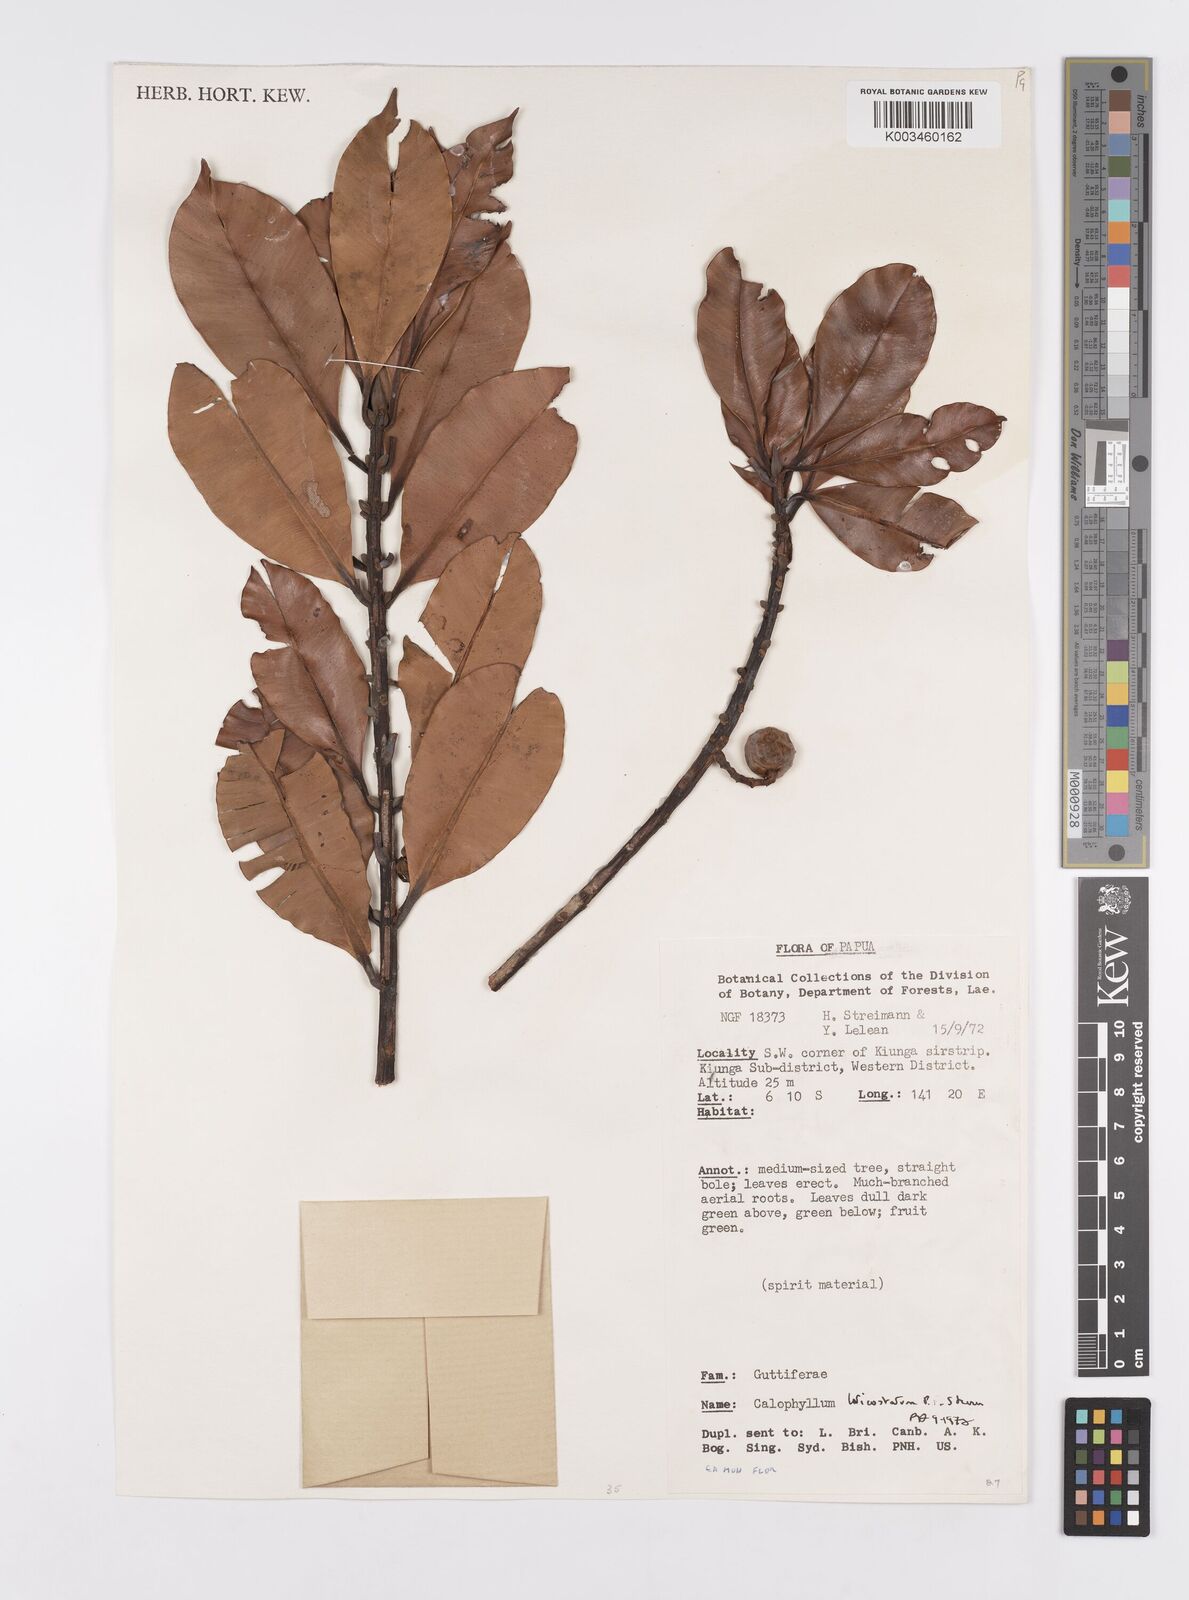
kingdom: Plantae
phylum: Tracheophyta
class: Magnoliopsida
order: Malpighiales
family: Calophyllaceae
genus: Calophyllum
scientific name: Calophyllum laticostatum
